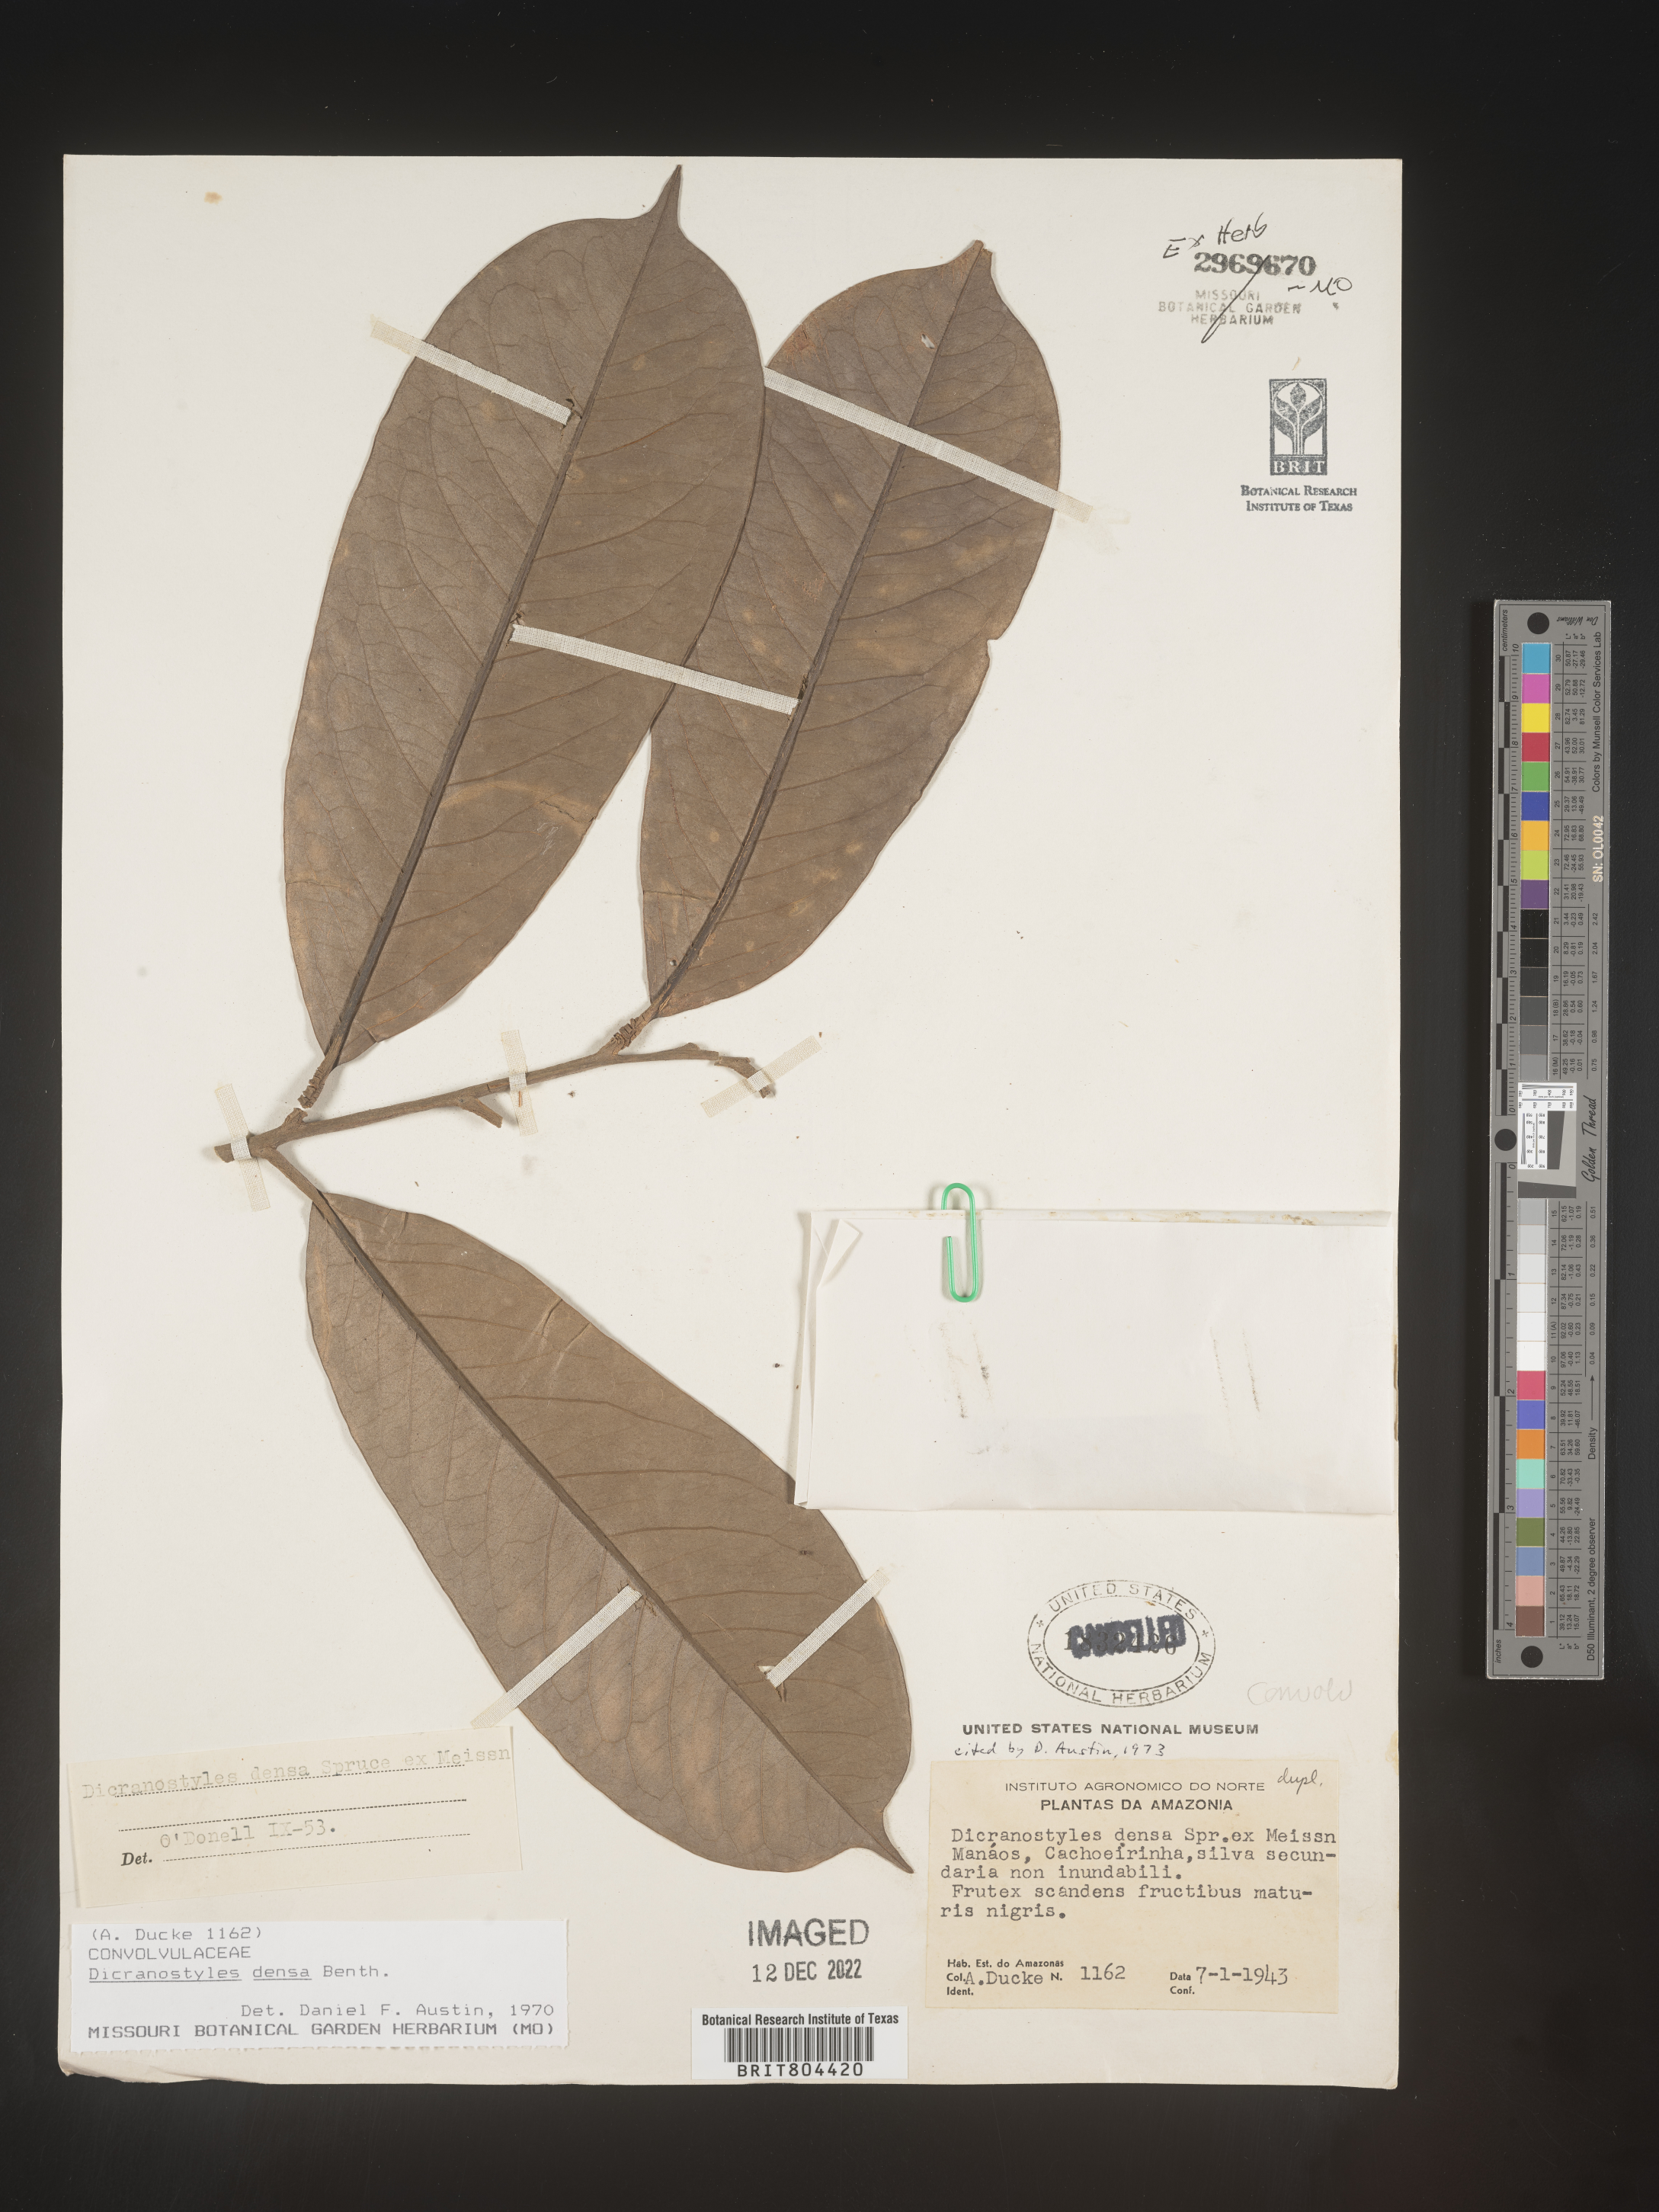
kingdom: Plantae
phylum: Tracheophyta
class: Magnoliopsida
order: Solanales
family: Convolvulaceae
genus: Dicranostyles
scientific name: Dicranostyles
